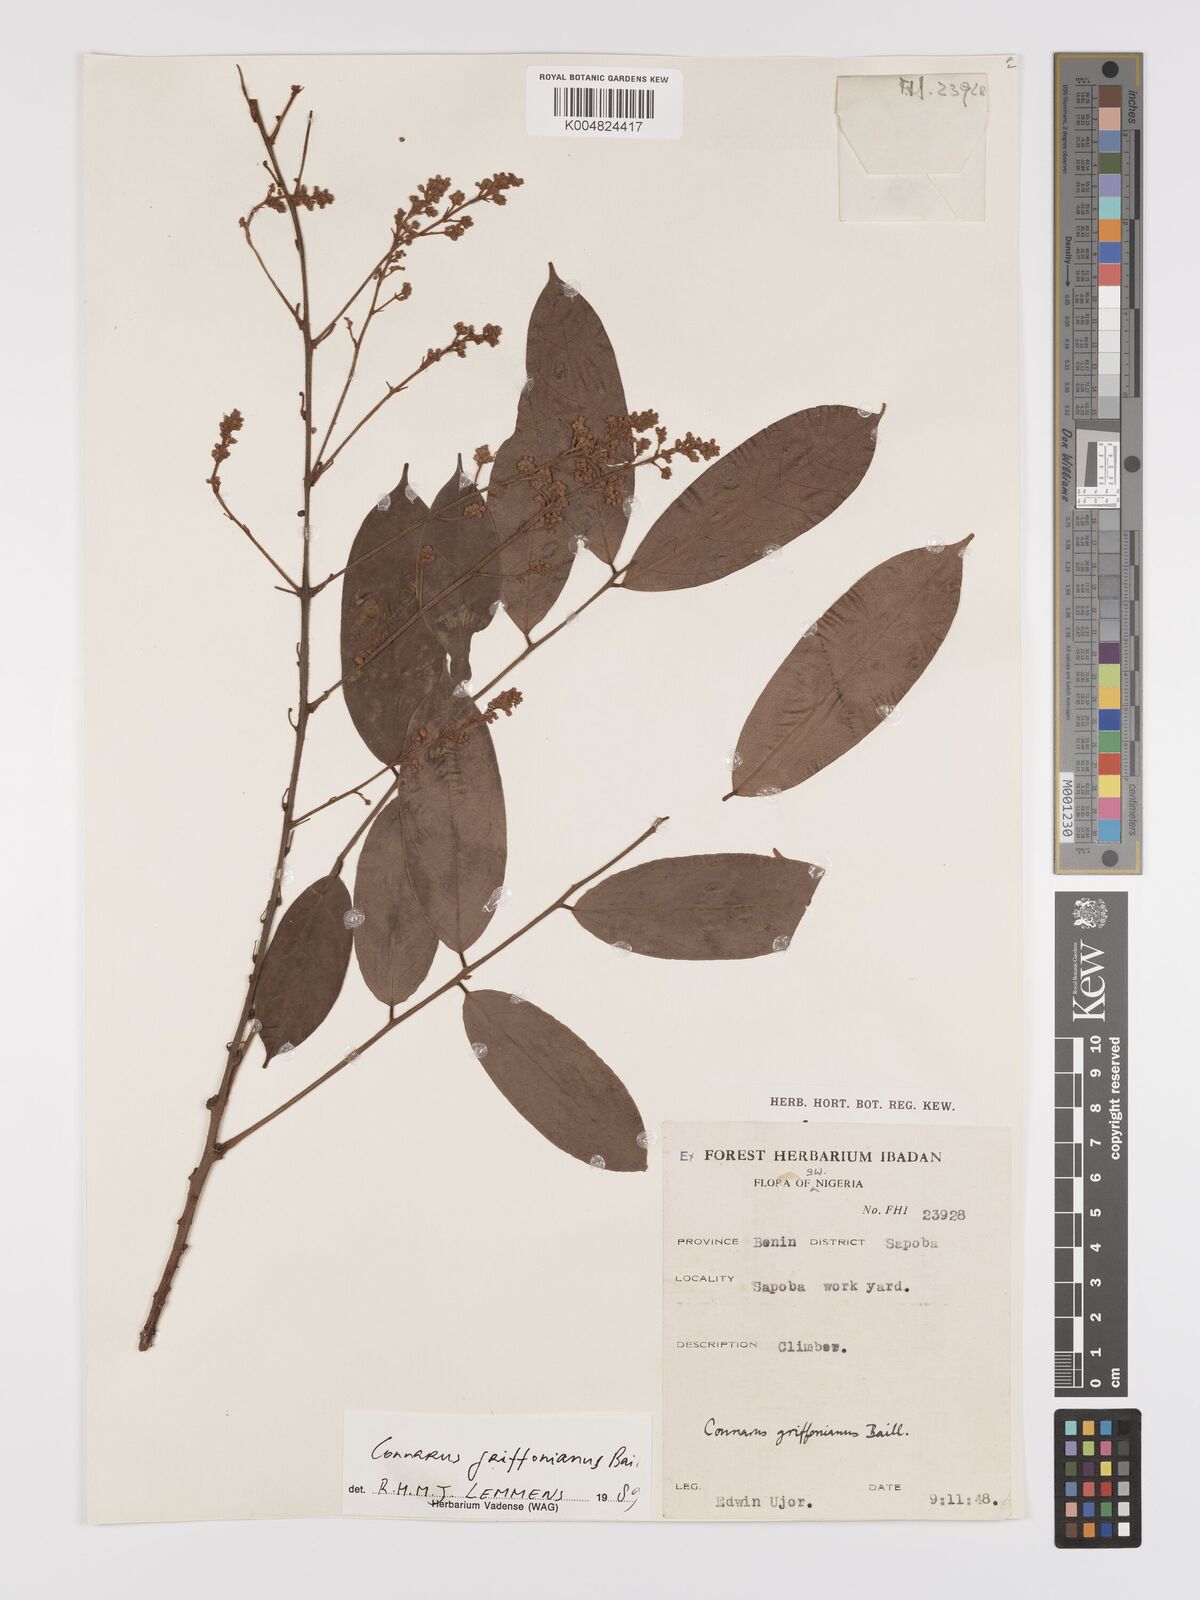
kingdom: Plantae
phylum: Tracheophyta
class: Magnoliopsida
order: Oxalidales
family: Connaraceae
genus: Connarus
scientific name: Connarus griffonianus
